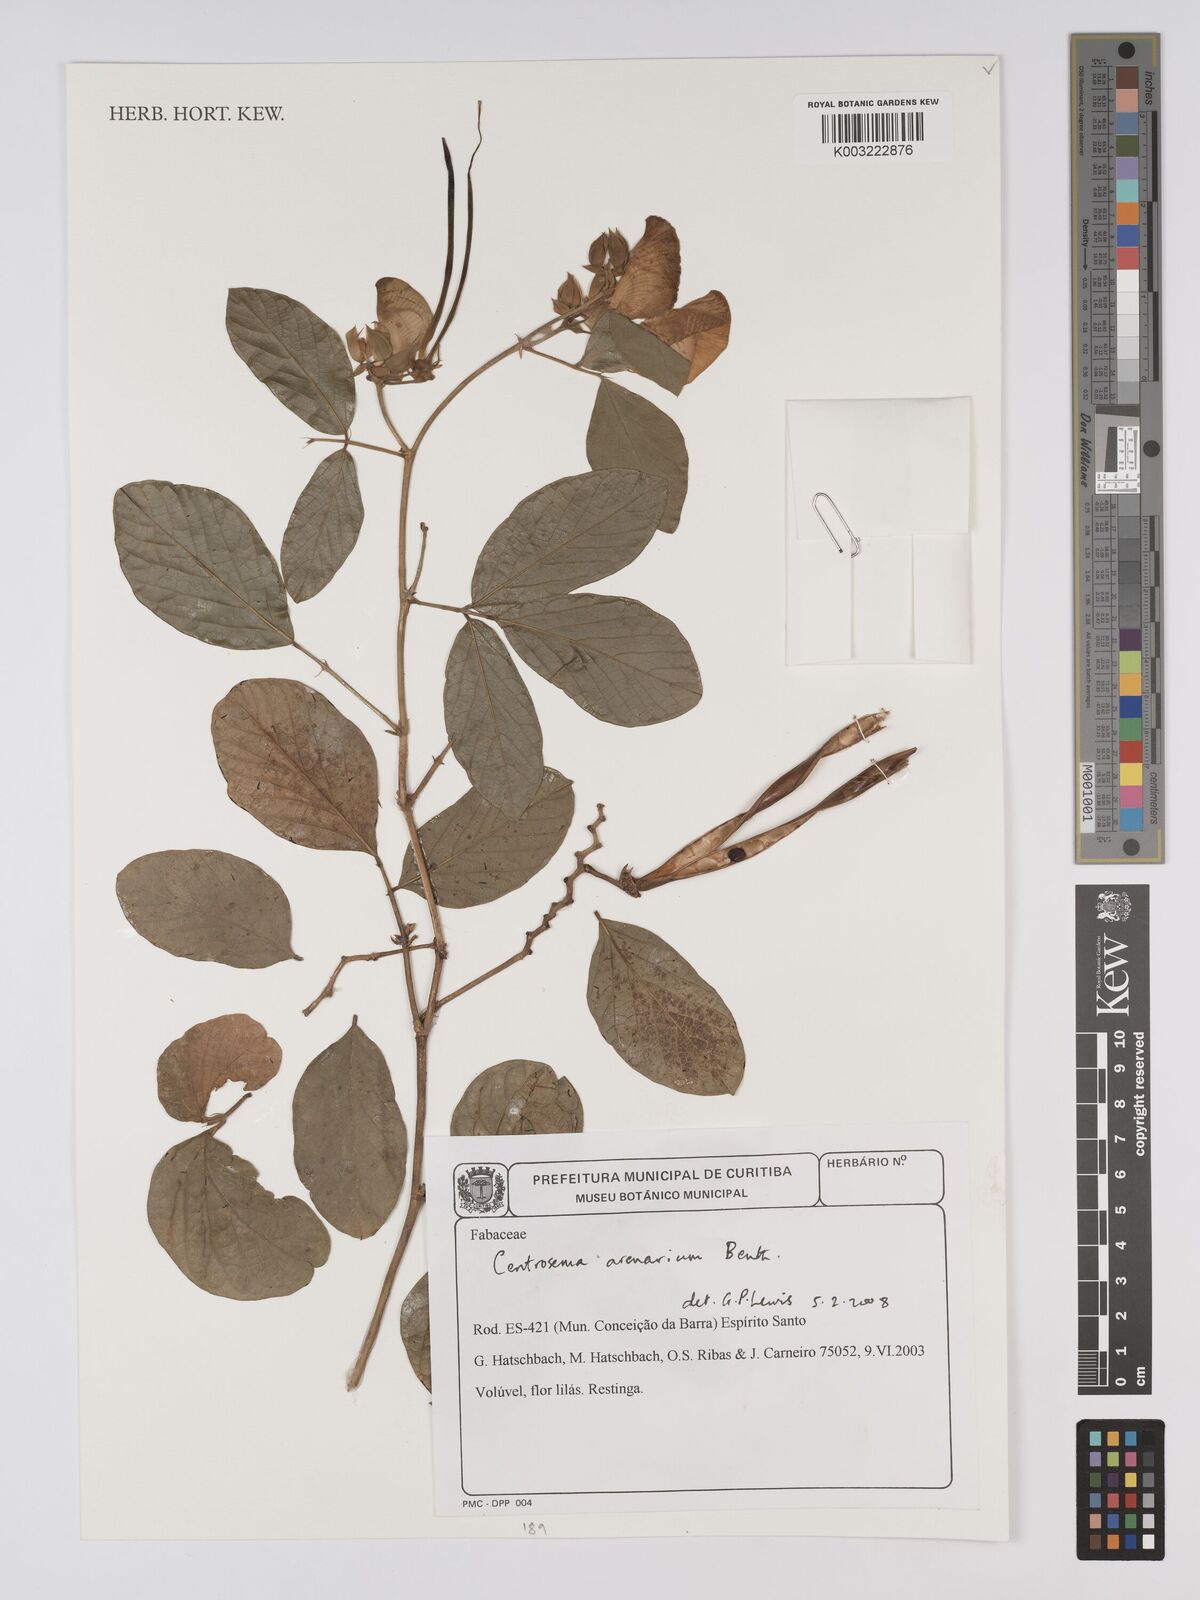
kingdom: Plantae
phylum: Tracheophyta
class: Magnoliopsida
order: Fabales
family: Fabaceae
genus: Centrosema
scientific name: Centrosema arenarium
